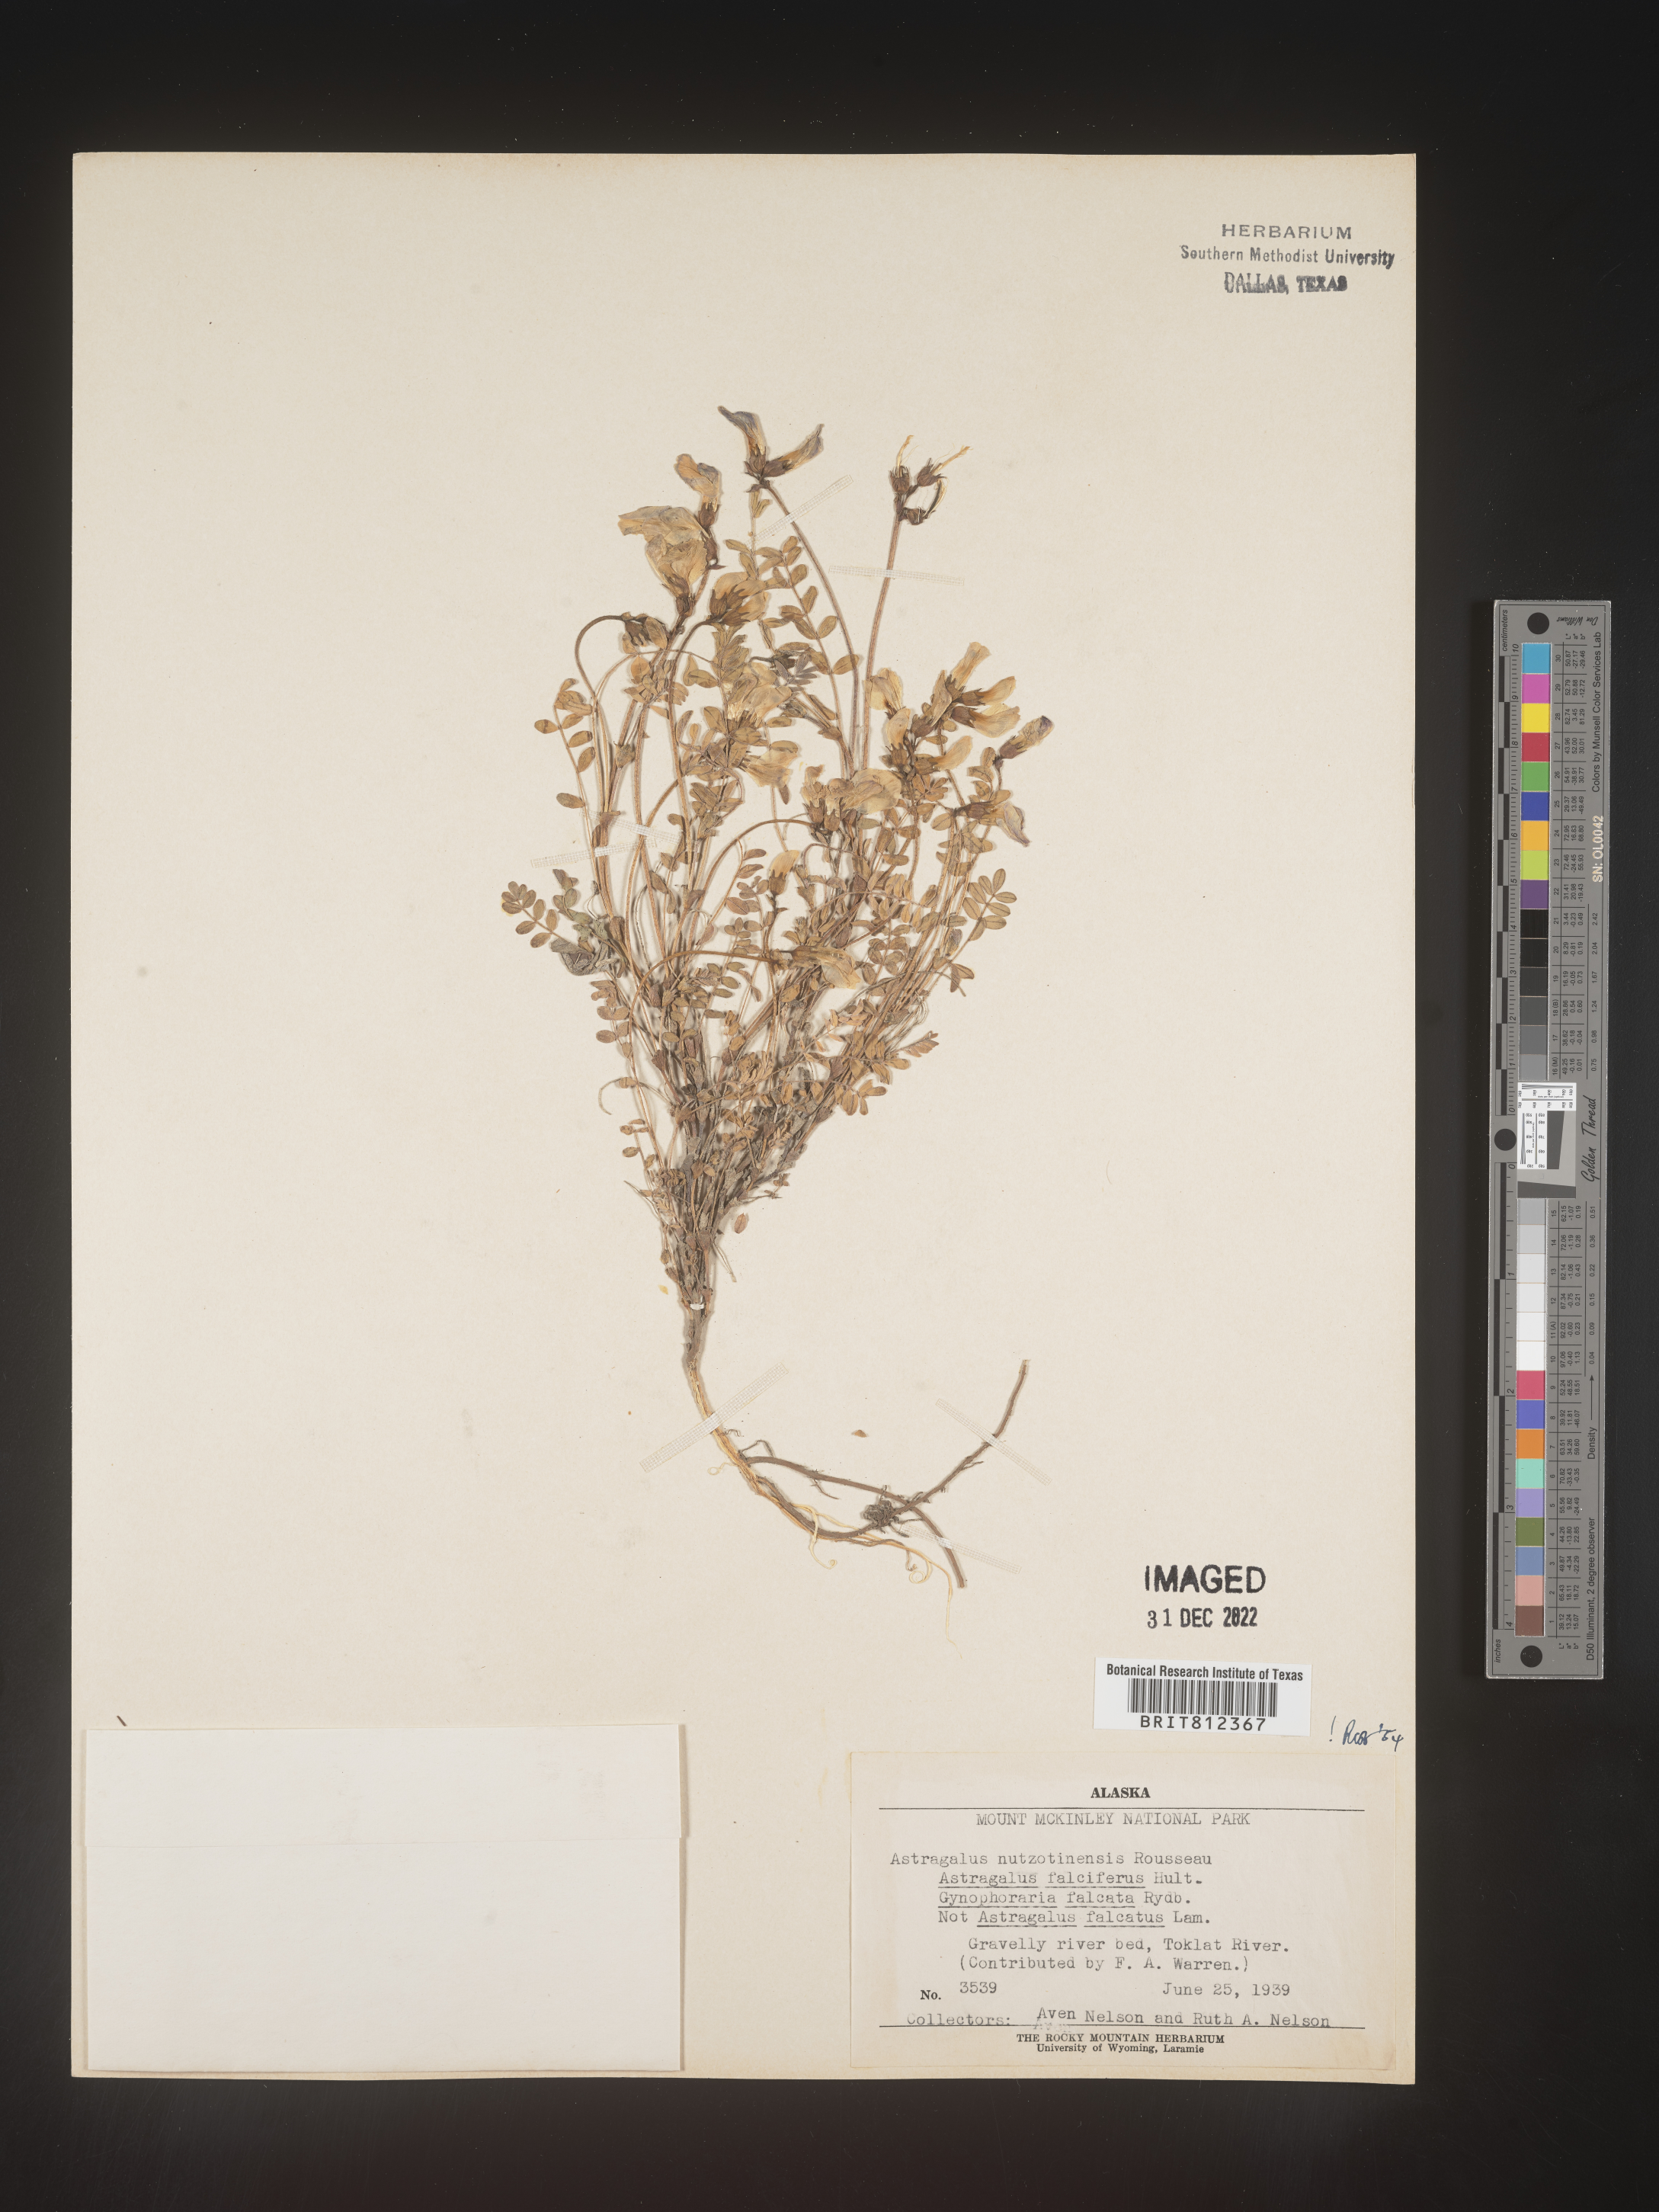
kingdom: Plantae
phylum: Tracheophyta
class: Magnoliopsida
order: Fabales
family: Fabaceae
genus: Astragalus
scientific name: Astragalus nuttallii
